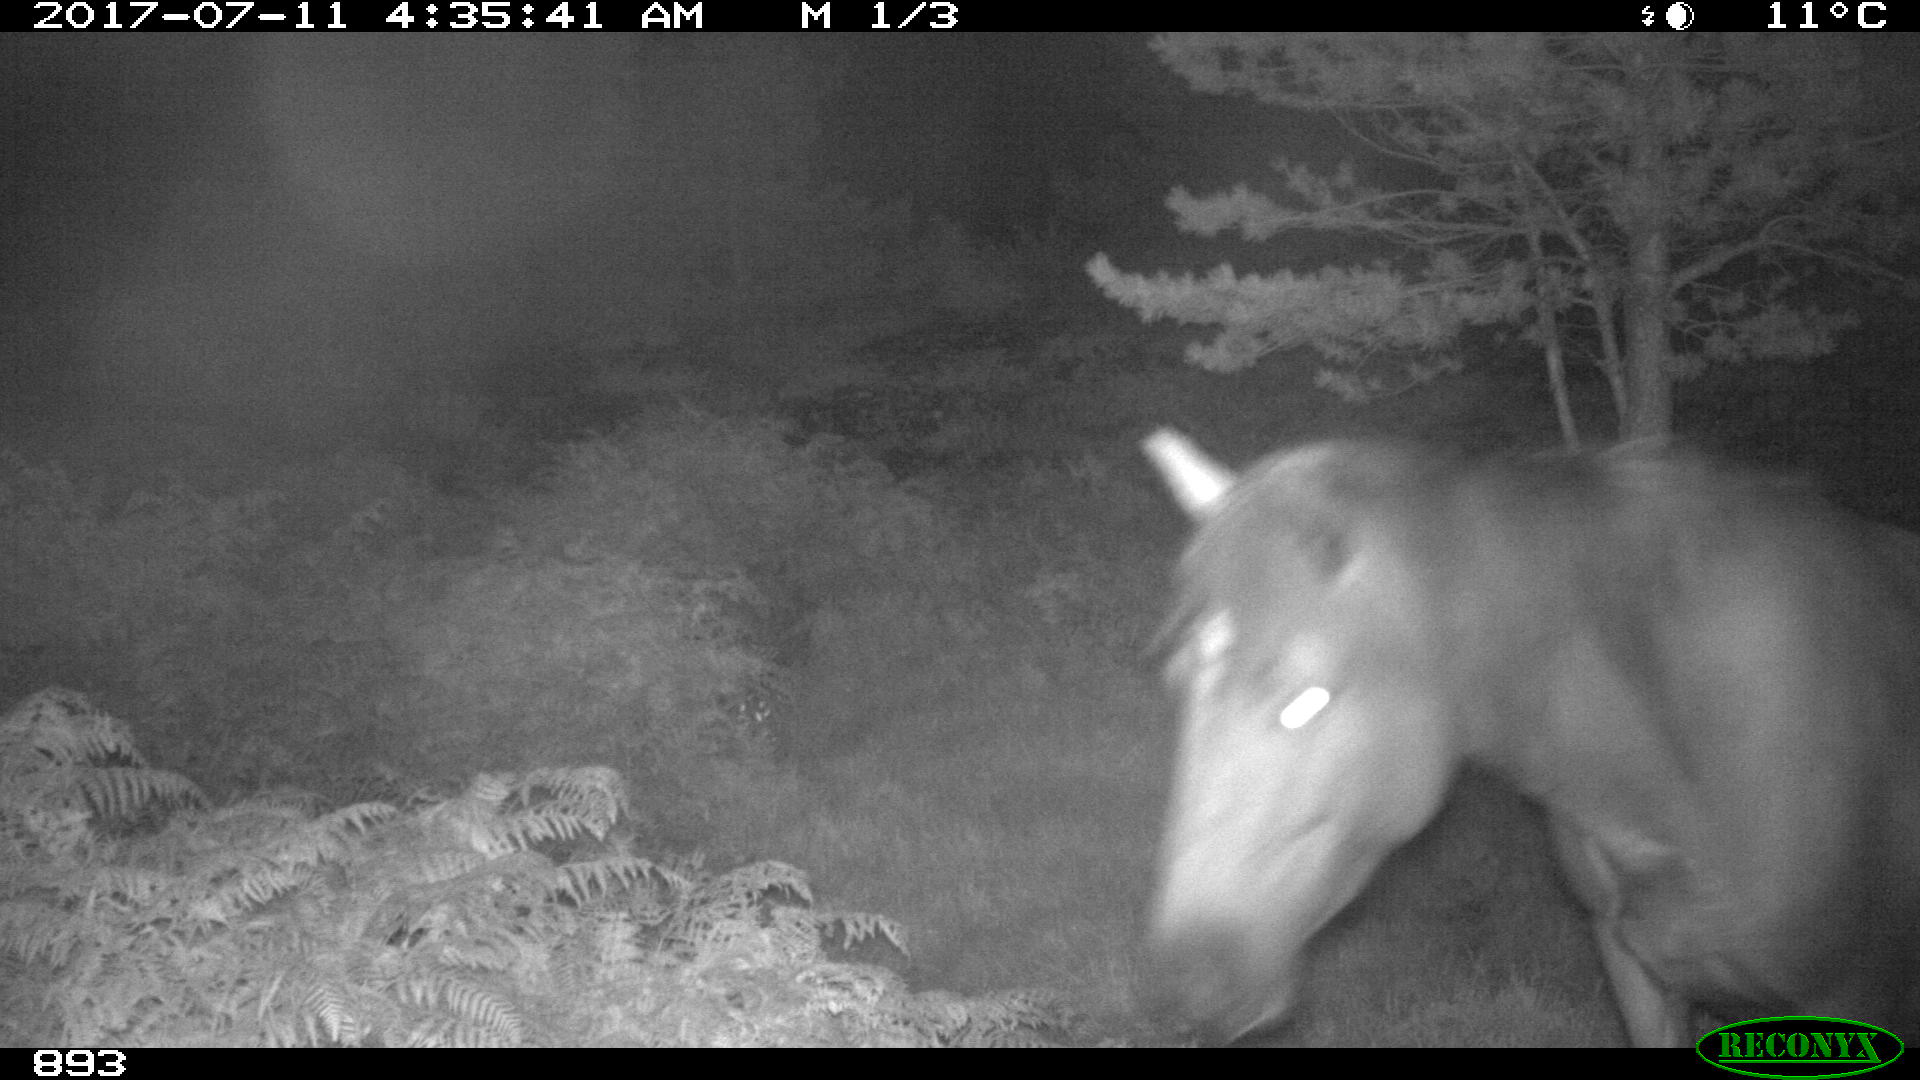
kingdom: Animalia
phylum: Chordata
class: Mammalia
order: Perissodactyla
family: Equidae
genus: Equus
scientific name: Equus caballus
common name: Horse
